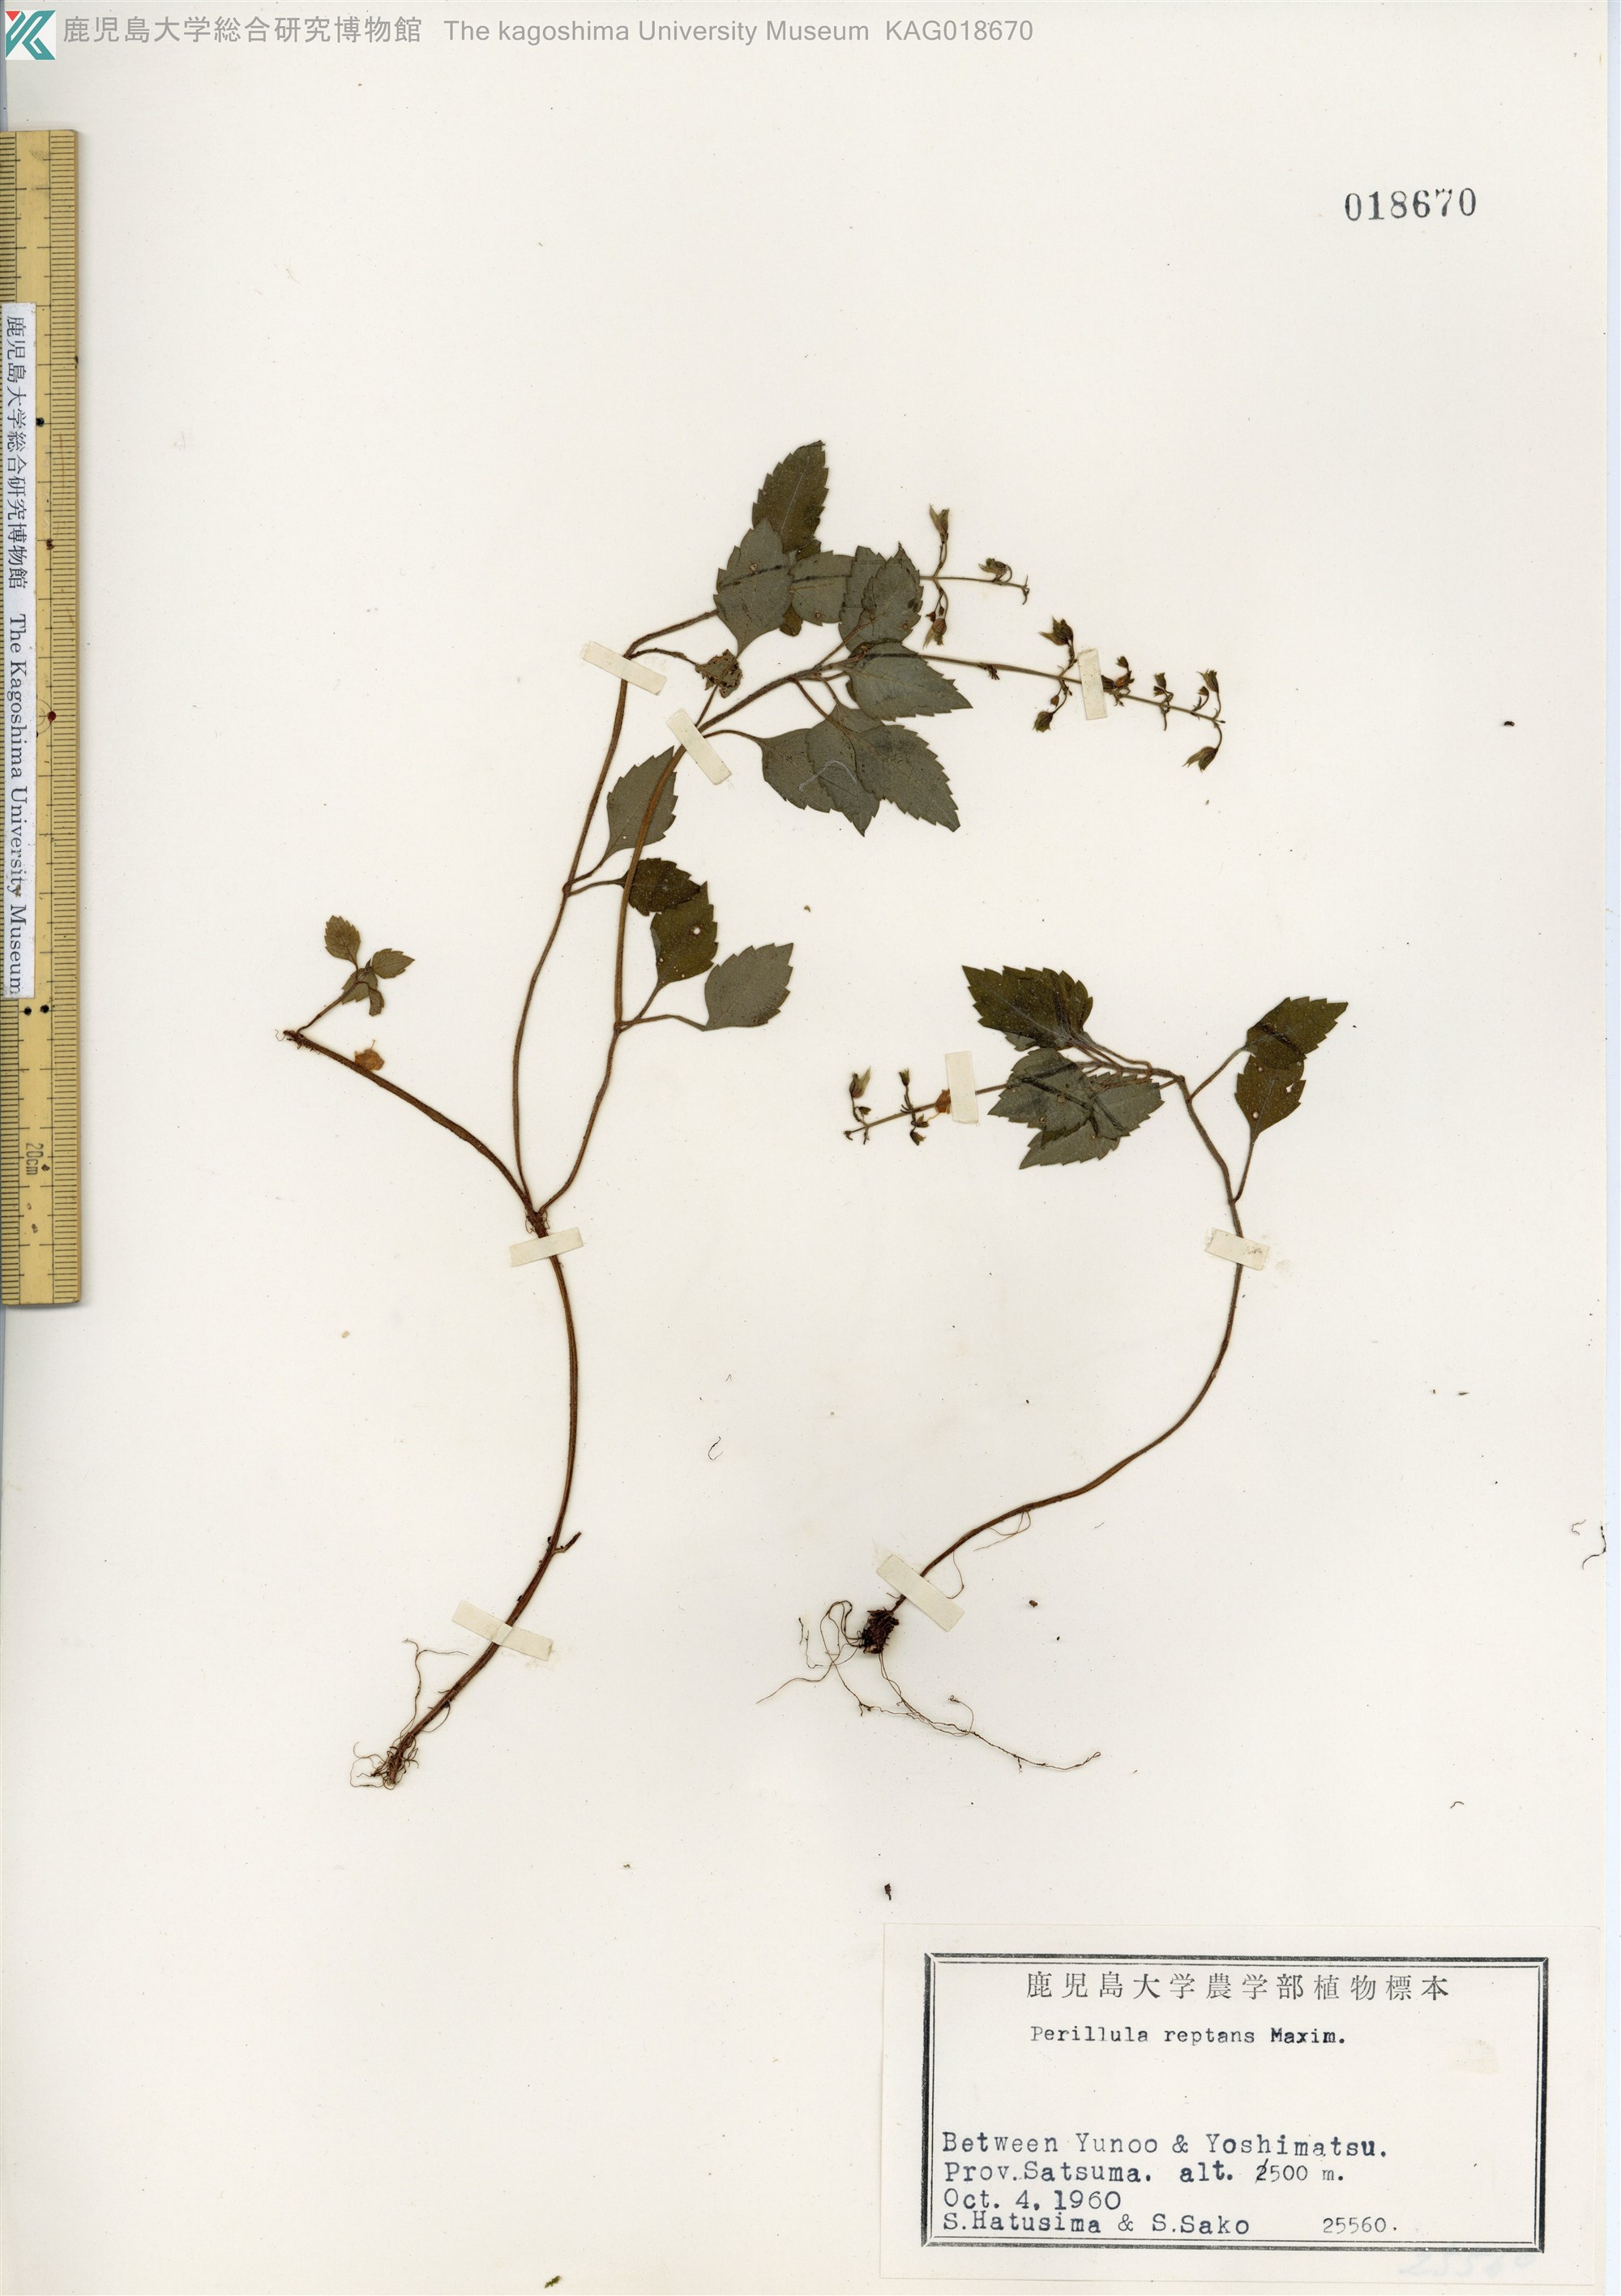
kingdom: Plantae
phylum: Tracheophyta
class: Magnoliopsida
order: Lamiales
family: Lamiaceae
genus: Perillula
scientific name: Perillula reptans
